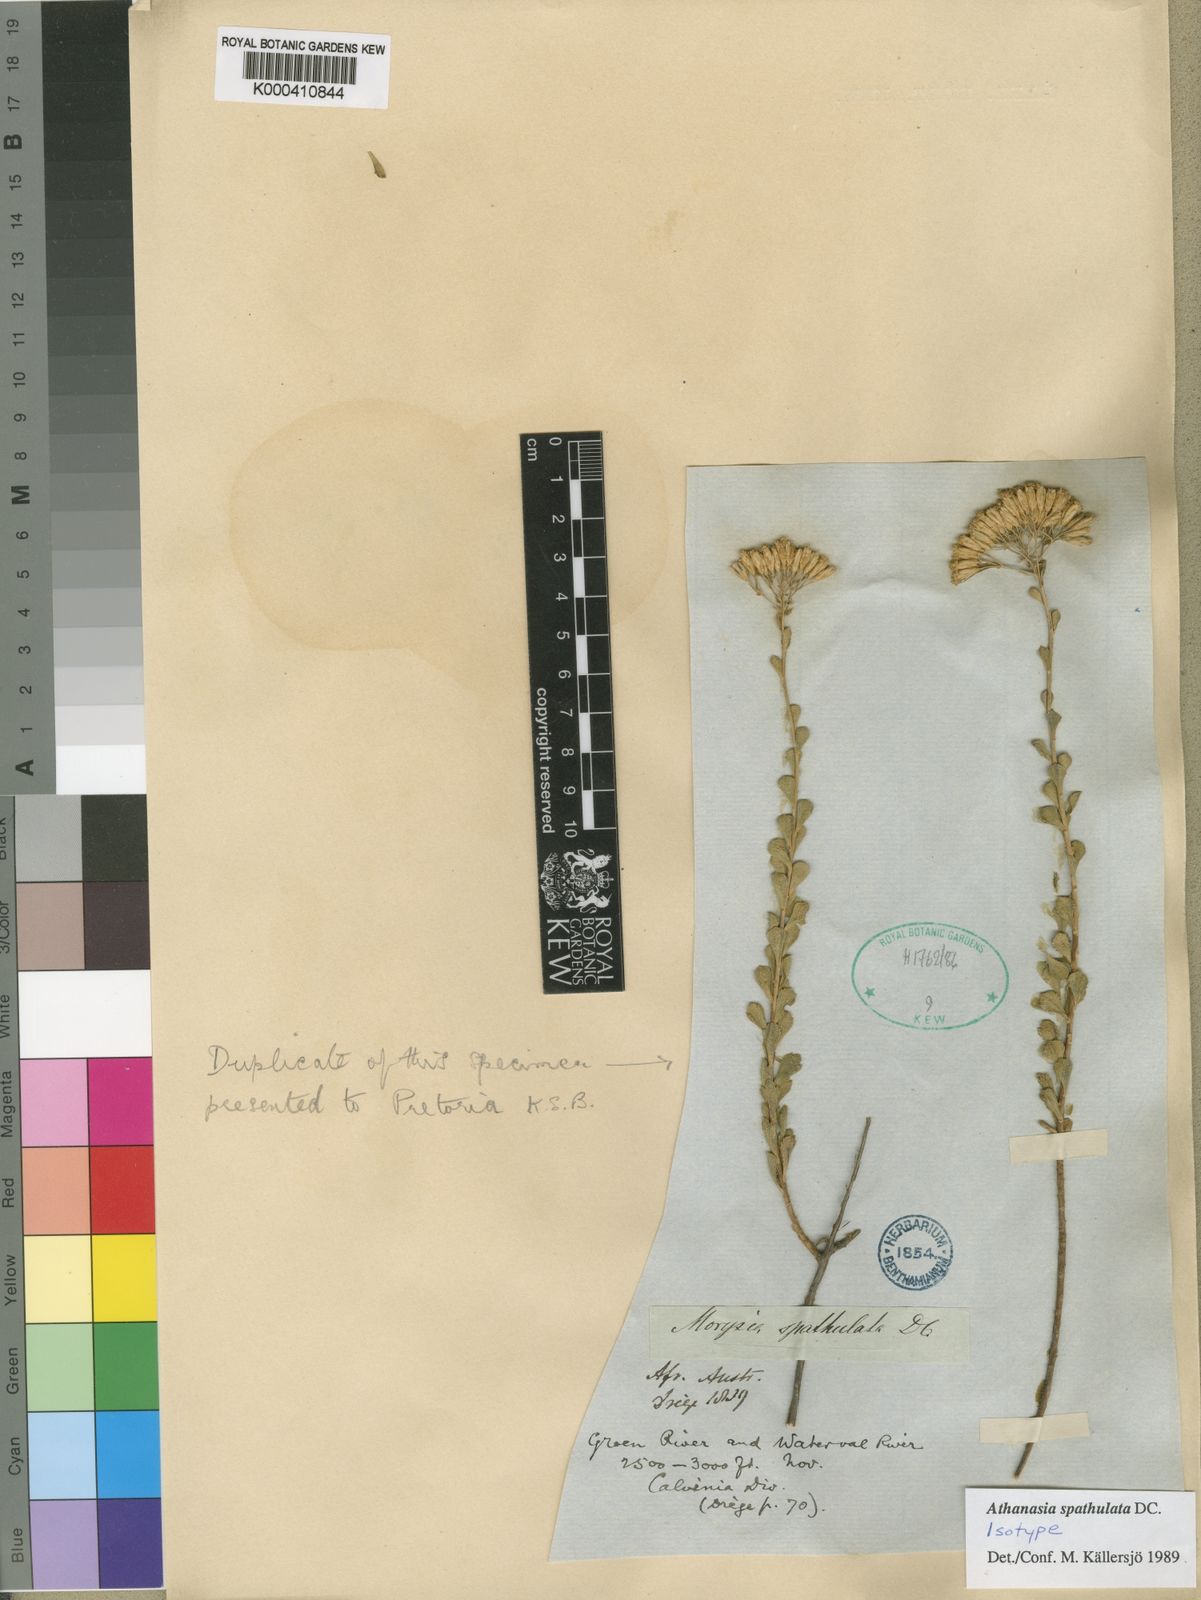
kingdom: Plantae
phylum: Tracheophyta
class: Magnoliopsida
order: Asterales
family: Asteraceae
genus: Athanasia
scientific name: Athanasia spathulata
